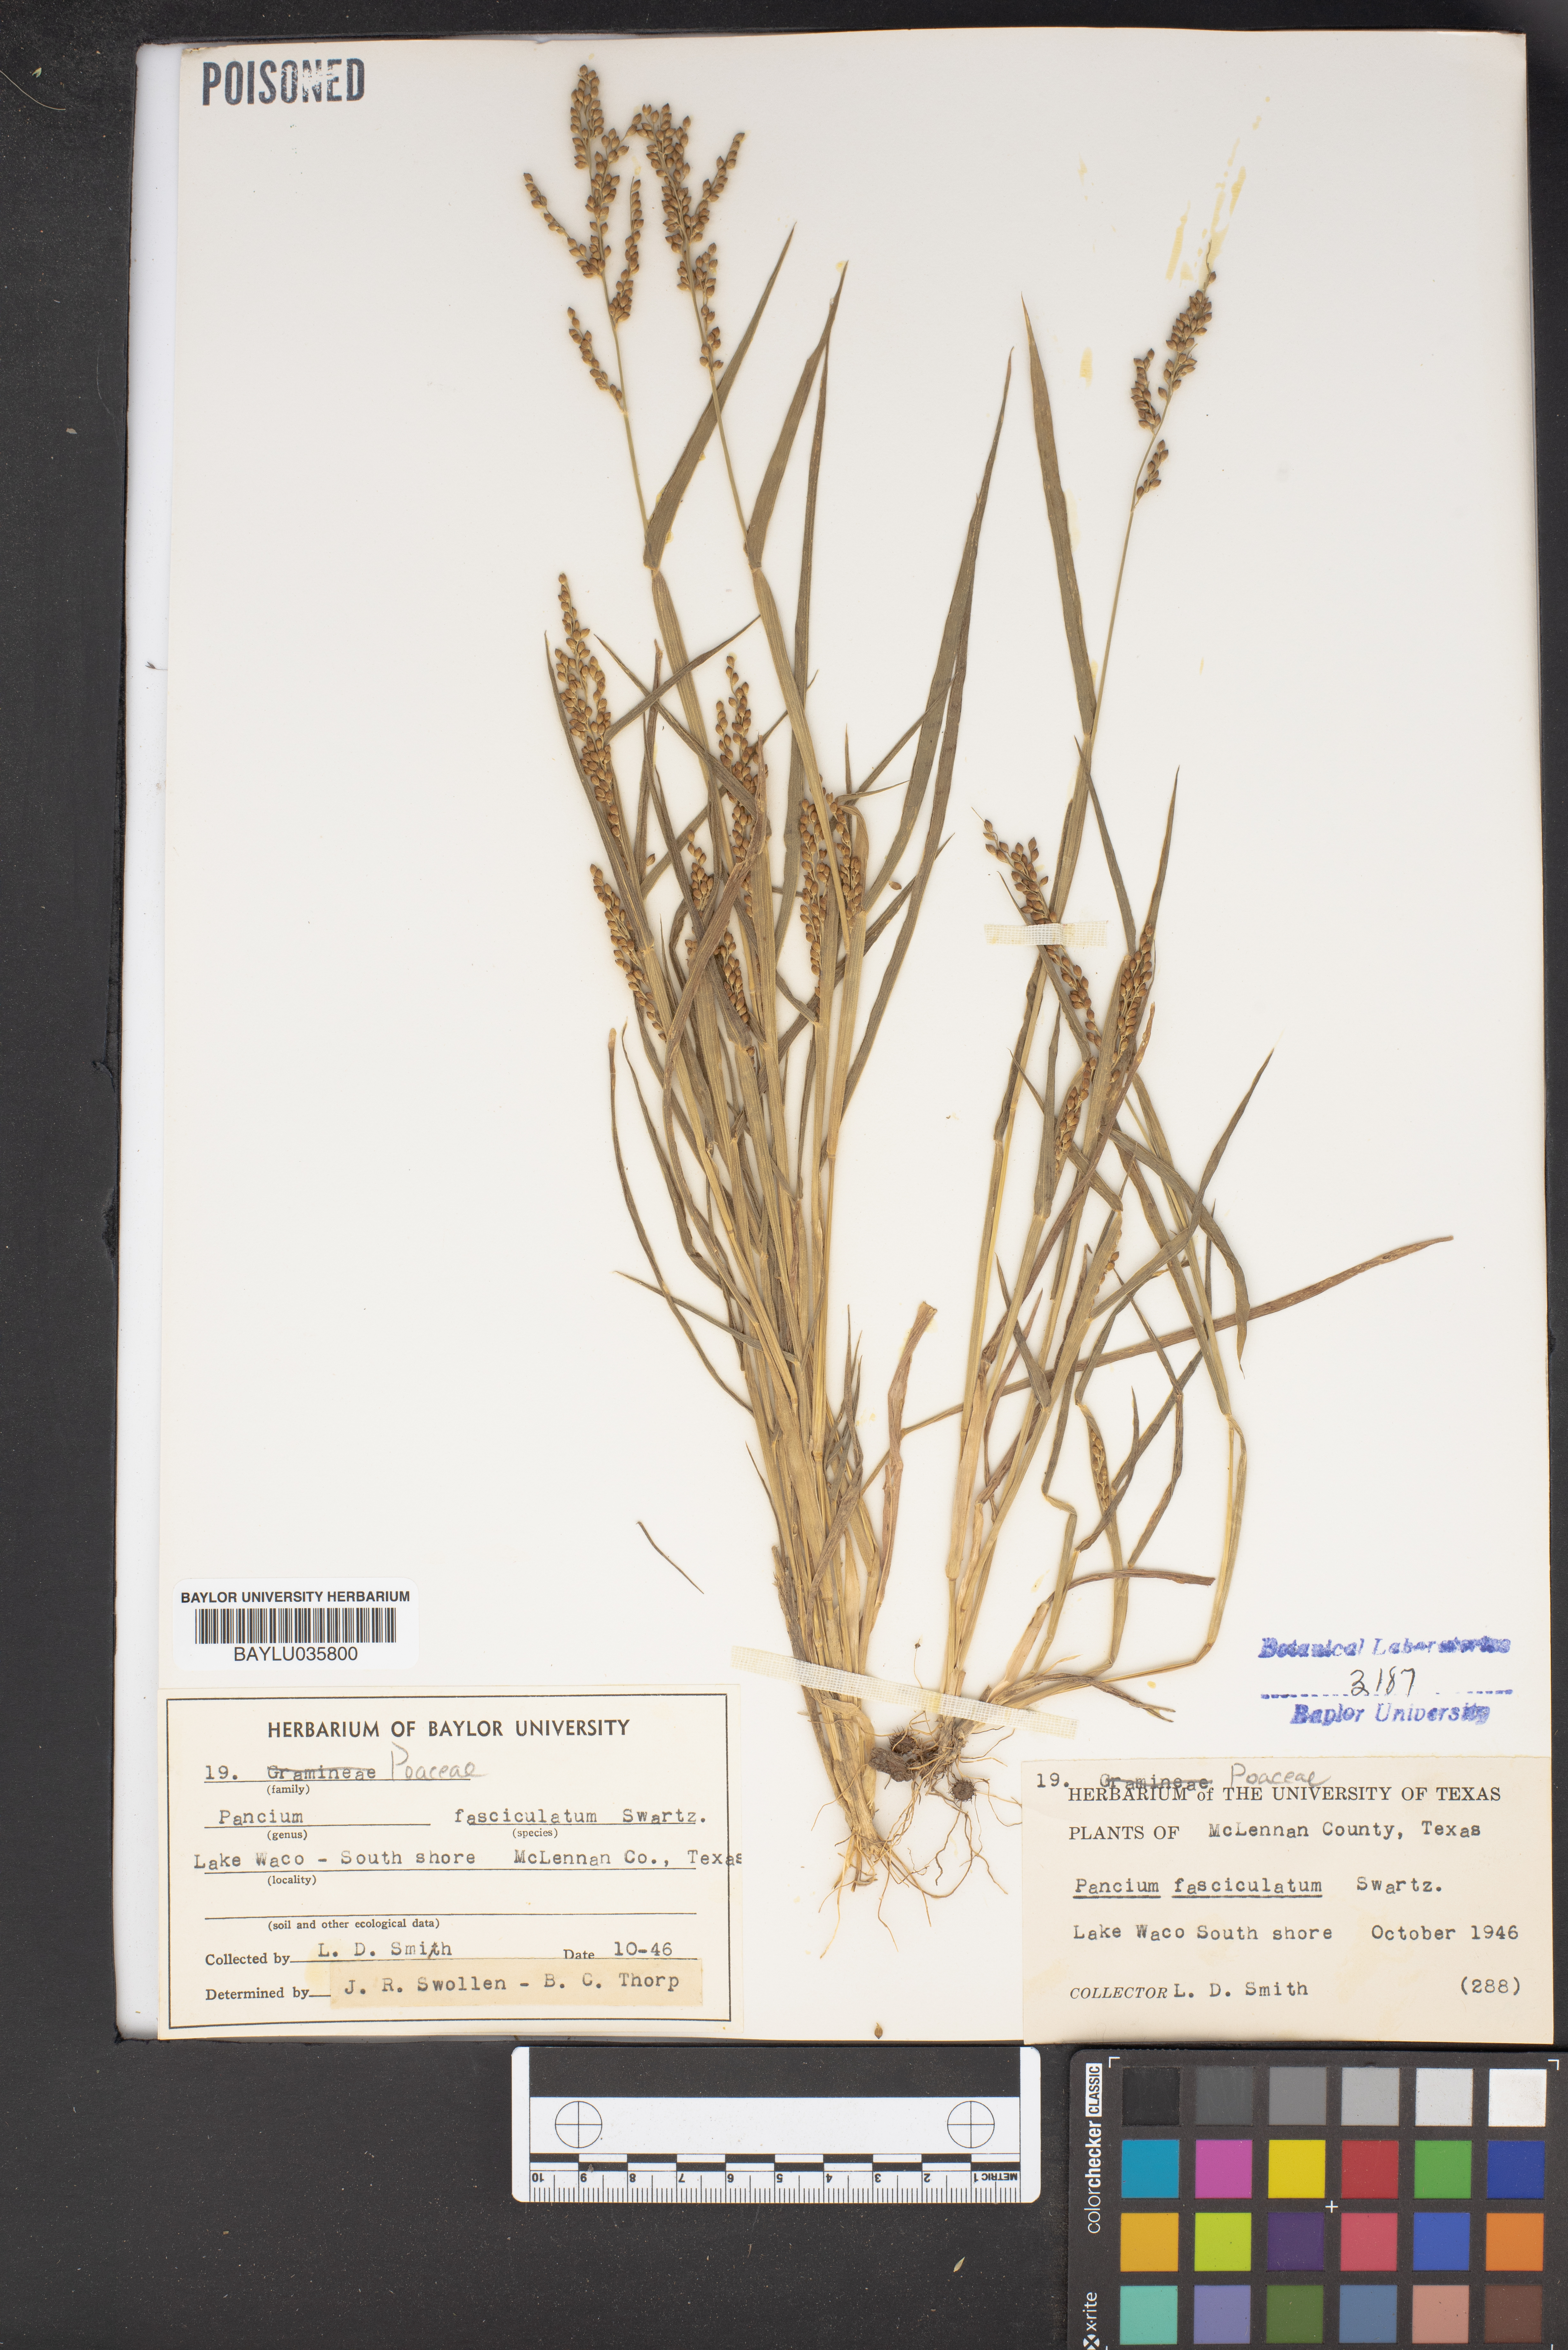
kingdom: Plantae
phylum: Tracheophyta
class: Liliopsida
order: Poales
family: Poaceae
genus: Urochloa
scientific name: Urochloa fusca
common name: Browntop signal grass
